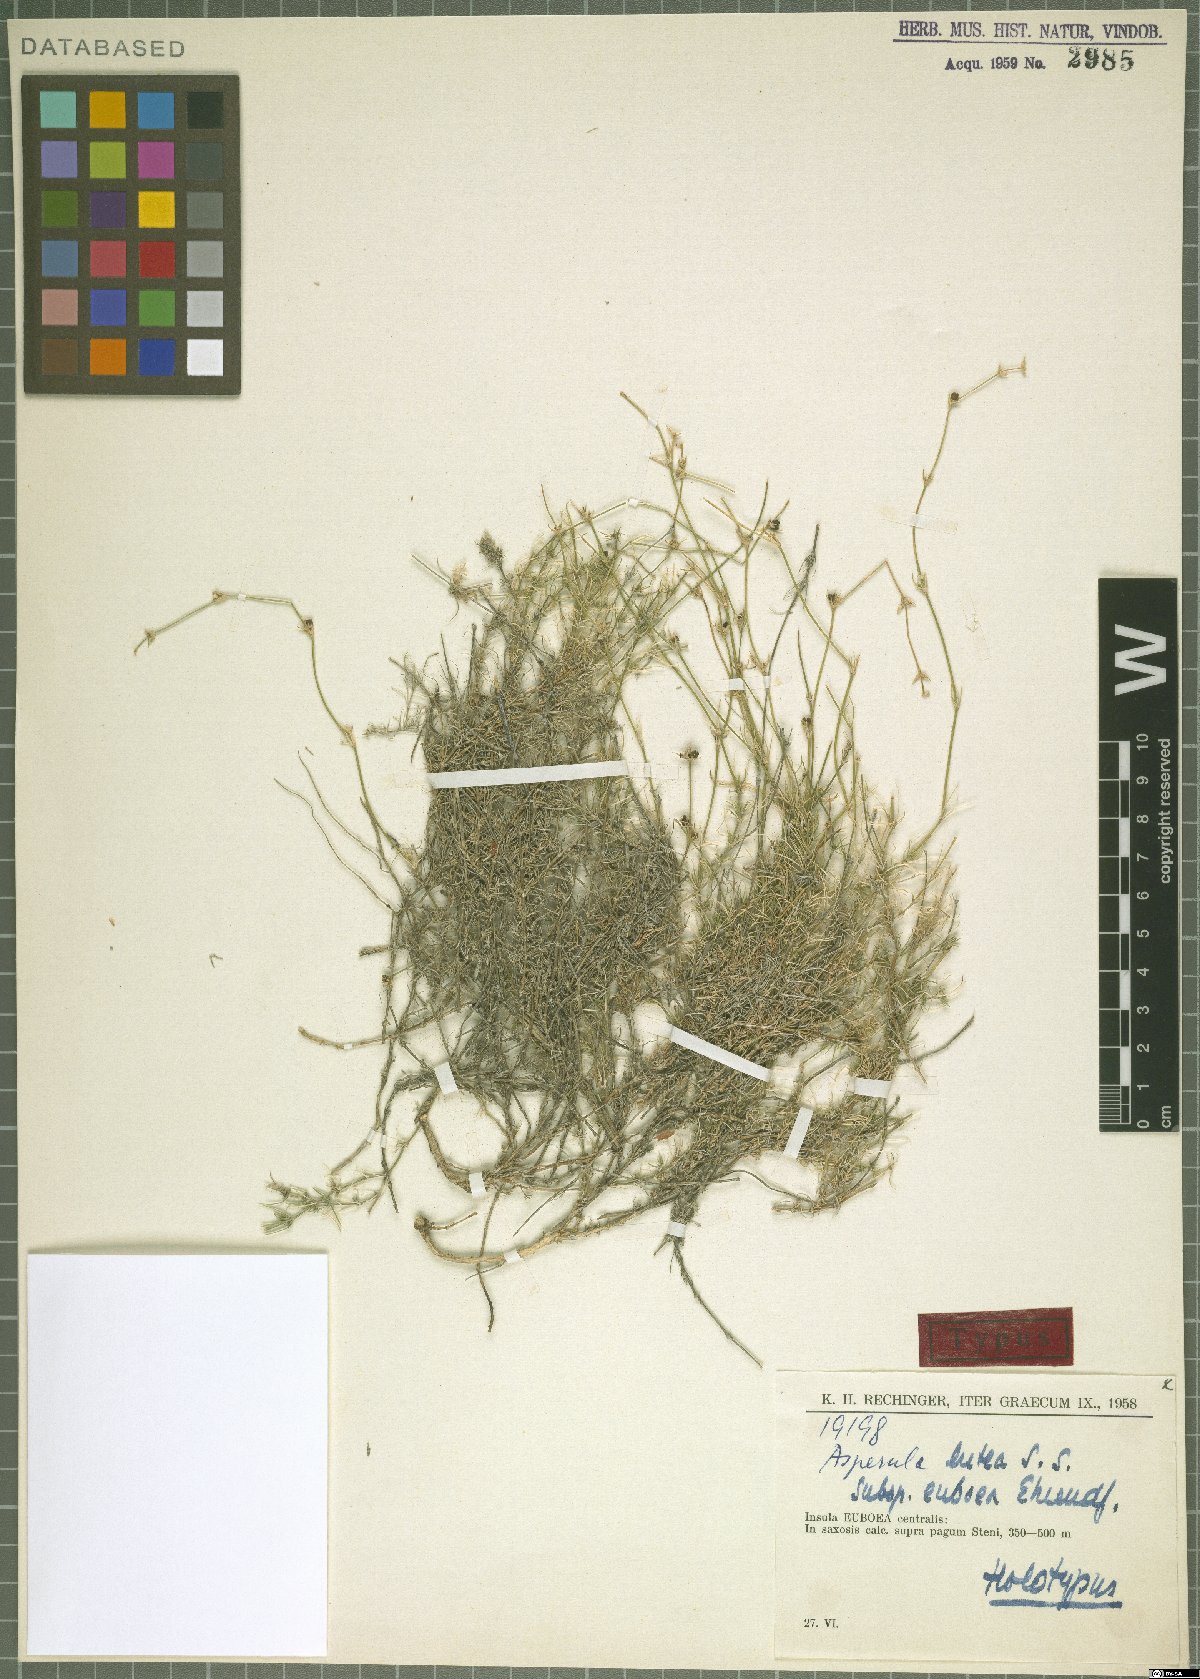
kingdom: Plantae
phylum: Tracheophyta
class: Magnoliopsida
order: Gentianales
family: Rubiaceae
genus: Cynanchica
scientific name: Cynanchica lutea
